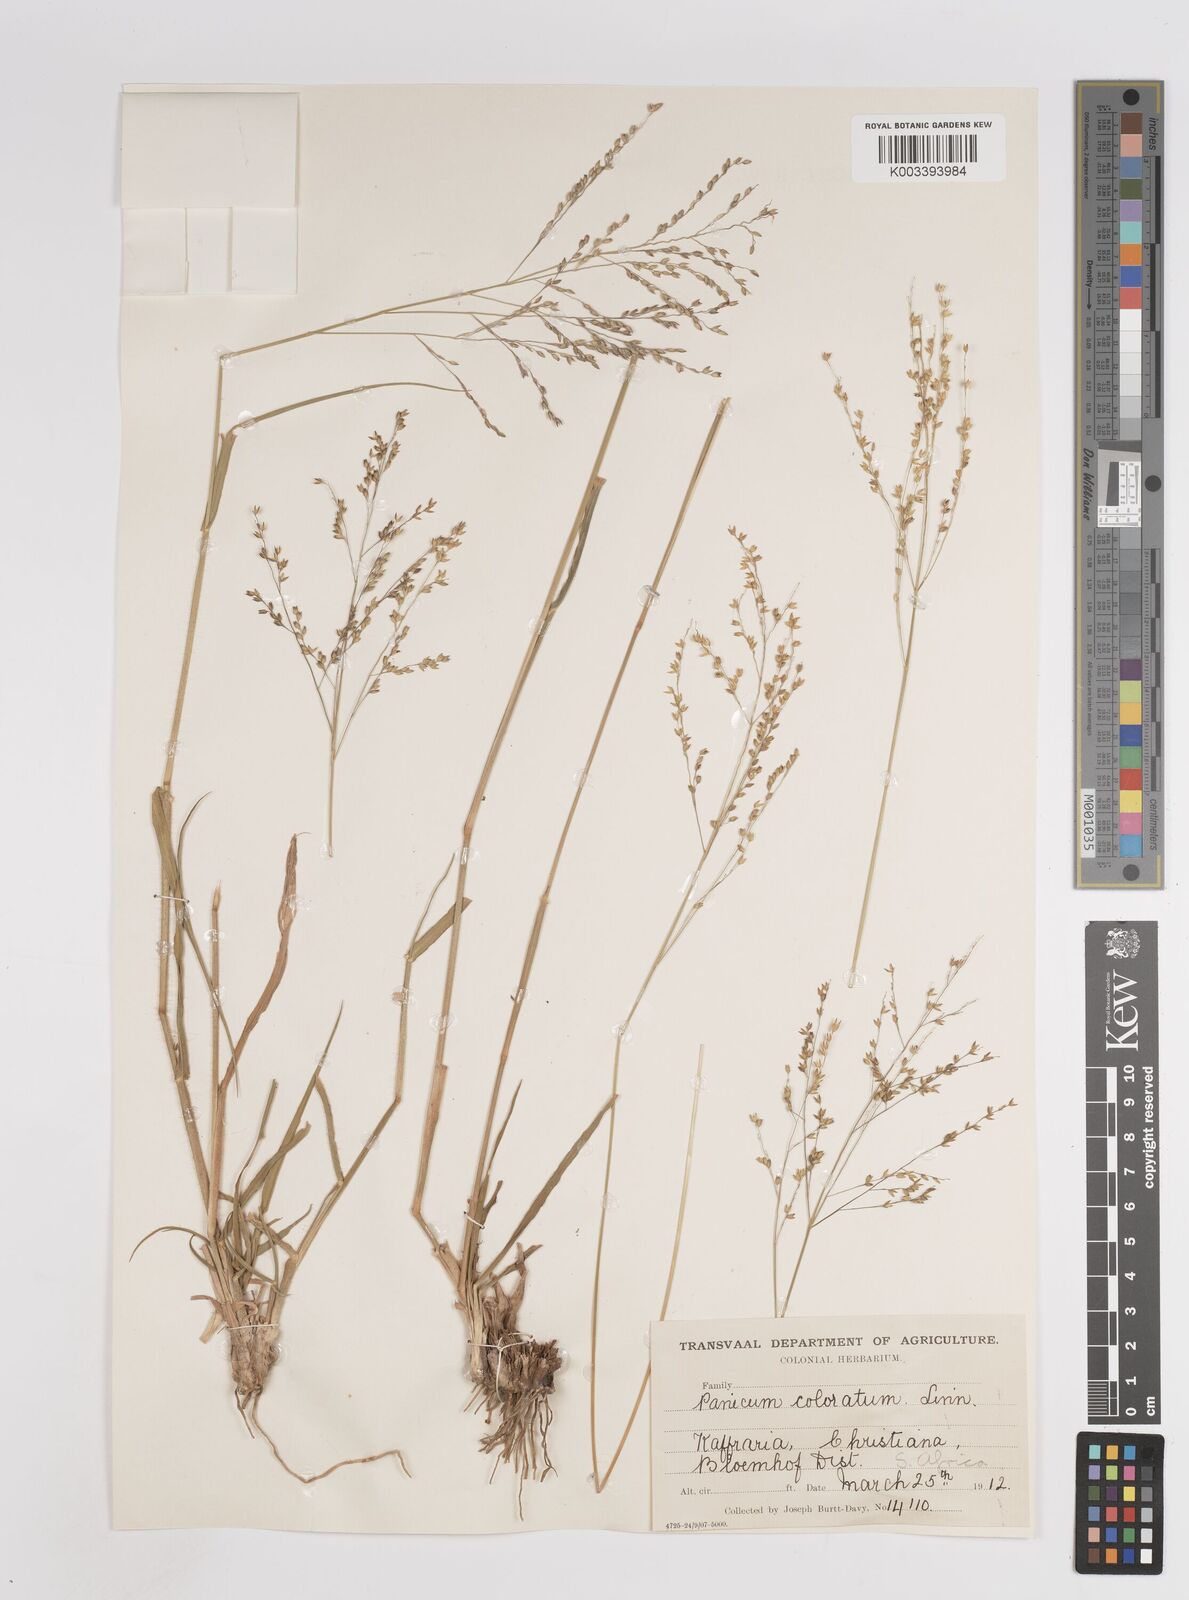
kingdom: Plantae
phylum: Tracheophyta
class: Liliopsida
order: Poales
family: Poaceae
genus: Panicum
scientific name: Panicum coloratum
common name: Kleingrass
